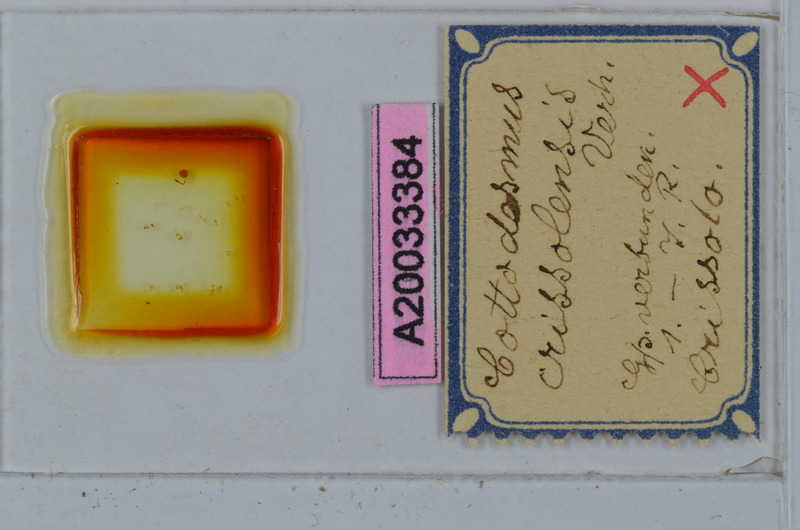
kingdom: Animalia
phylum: Arthropoda
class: Diplopoda
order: Polydesmida
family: Trichopolydesmidae
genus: Cottodesmus
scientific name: Cottodesmus crissolensis
